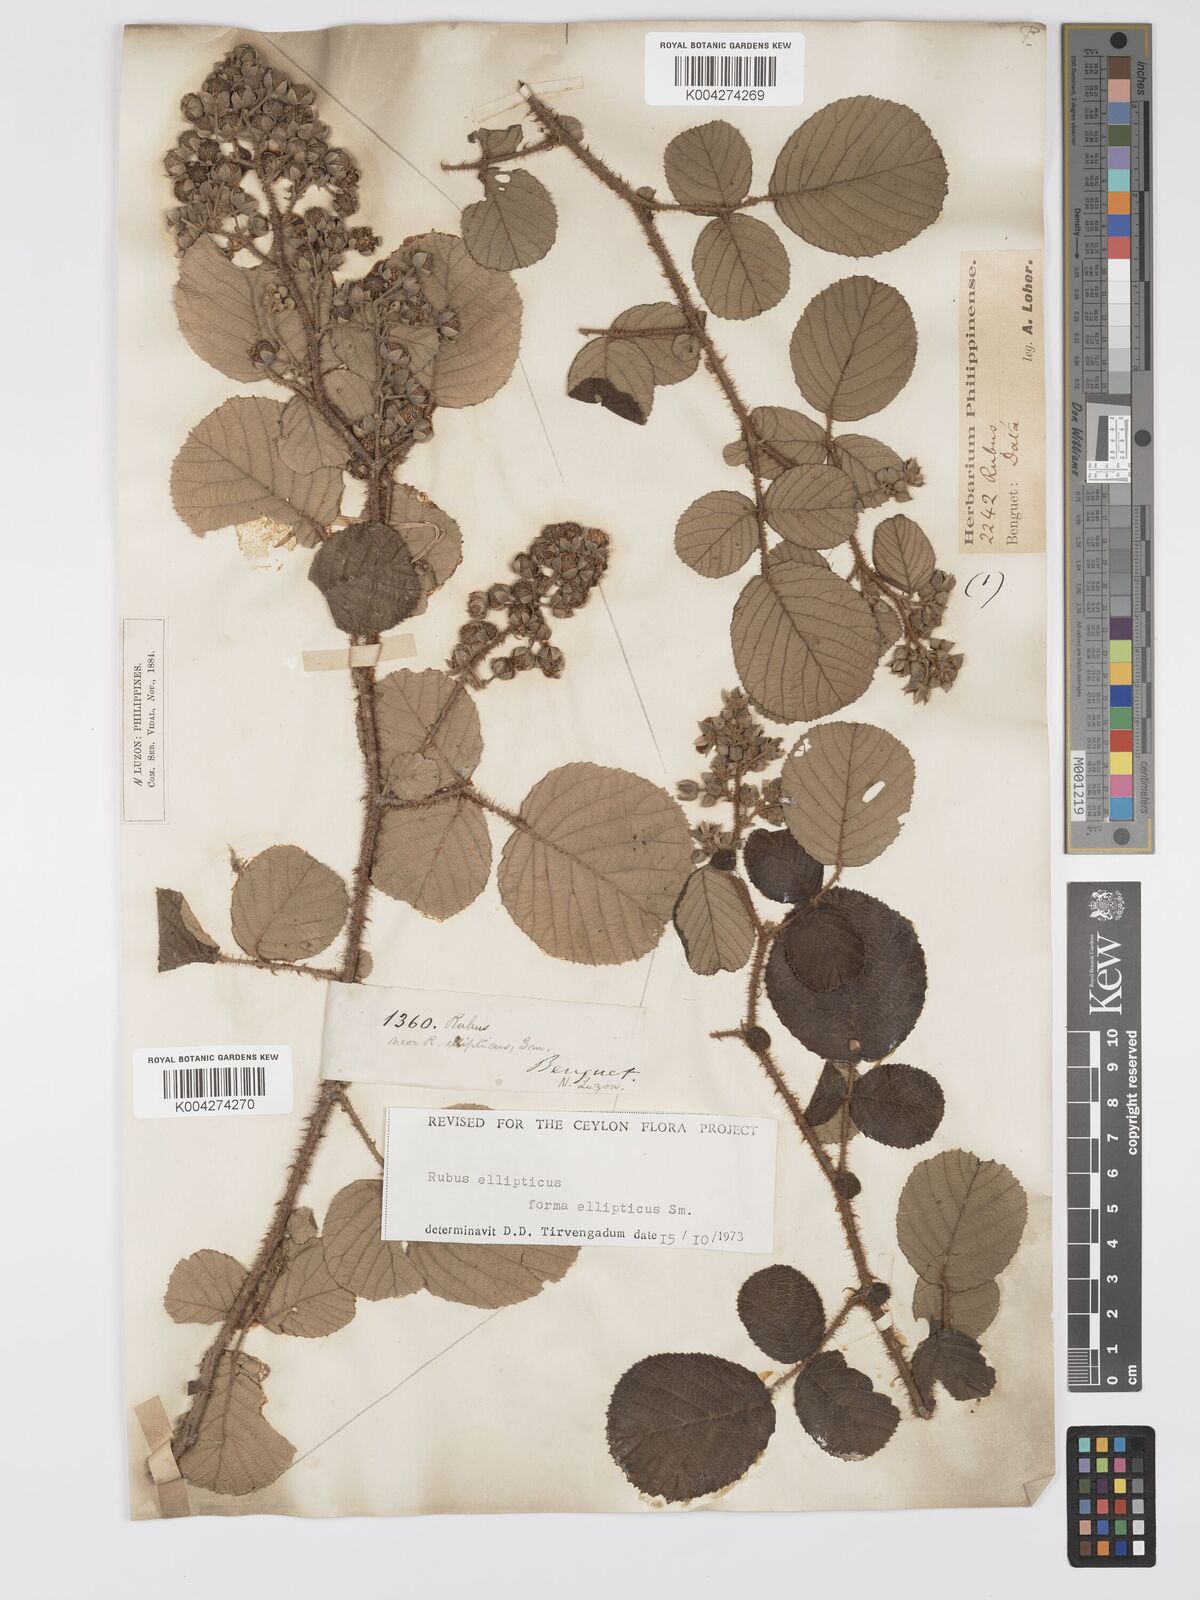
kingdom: Plantae
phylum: Tracheophyta
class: Magnoliopsida
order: Rosales
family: Rosaceae
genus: Rubus
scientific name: Rubus ellipticus
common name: Cheeseberry
